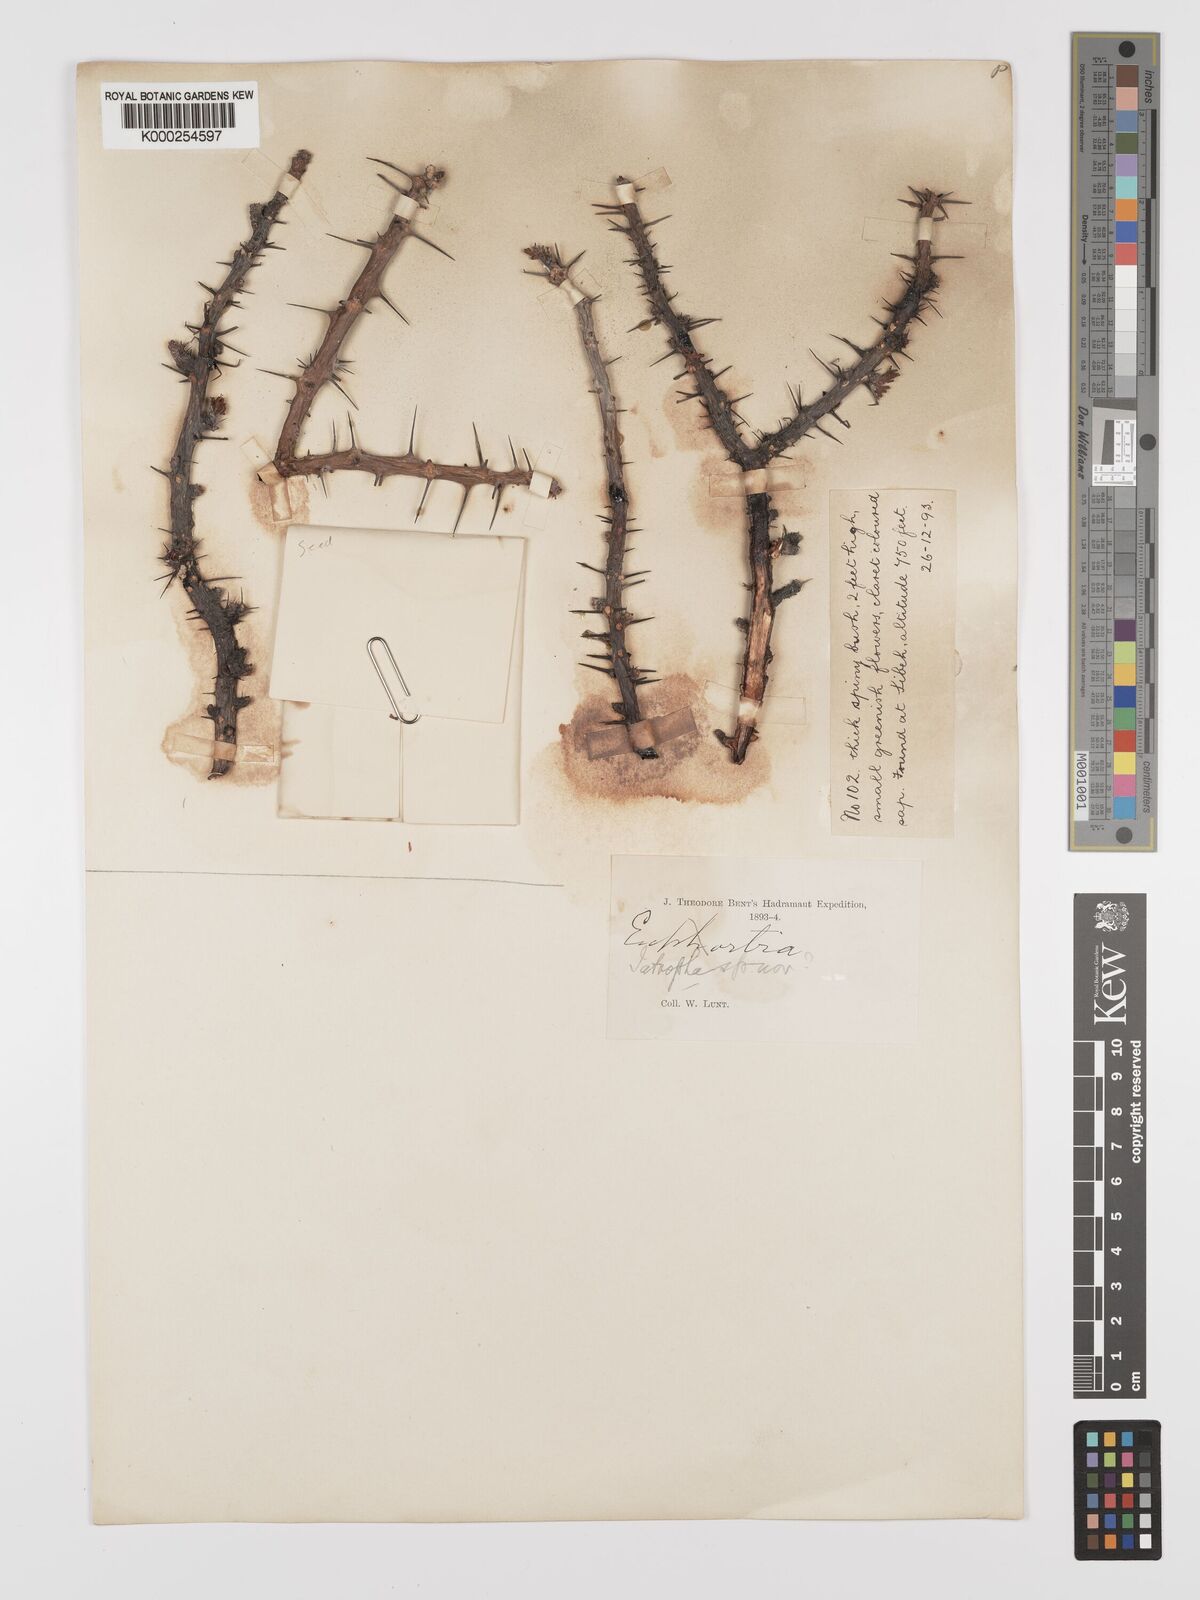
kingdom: Plantae
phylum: Tracheophyta
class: Magnoliopsida
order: Malpighiales
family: Euphorbiaceae
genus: Jatropha
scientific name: Jatropha spinosa
